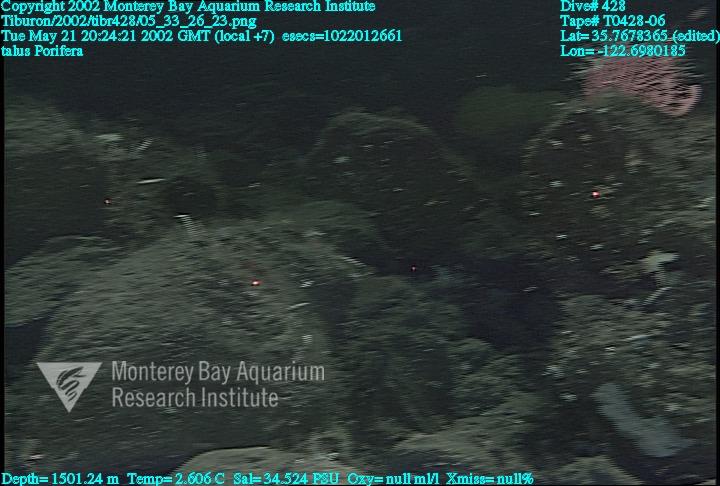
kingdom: Animalia
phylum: Porifera
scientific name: Porifera
